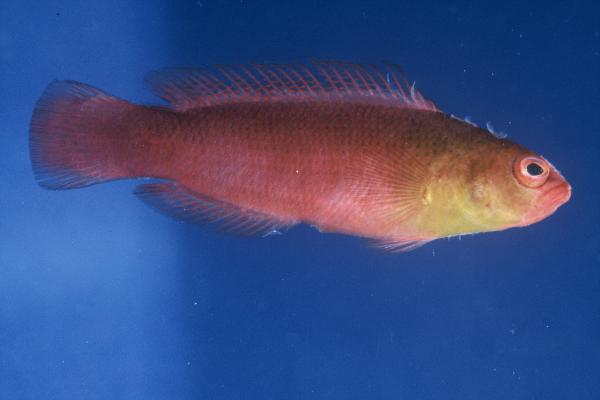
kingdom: Animalia
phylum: Chordata
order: Perciformes
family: Pseudochromidae
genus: Pseudochromis
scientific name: Pseudochromis kristinae
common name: Lipstick dottyback
